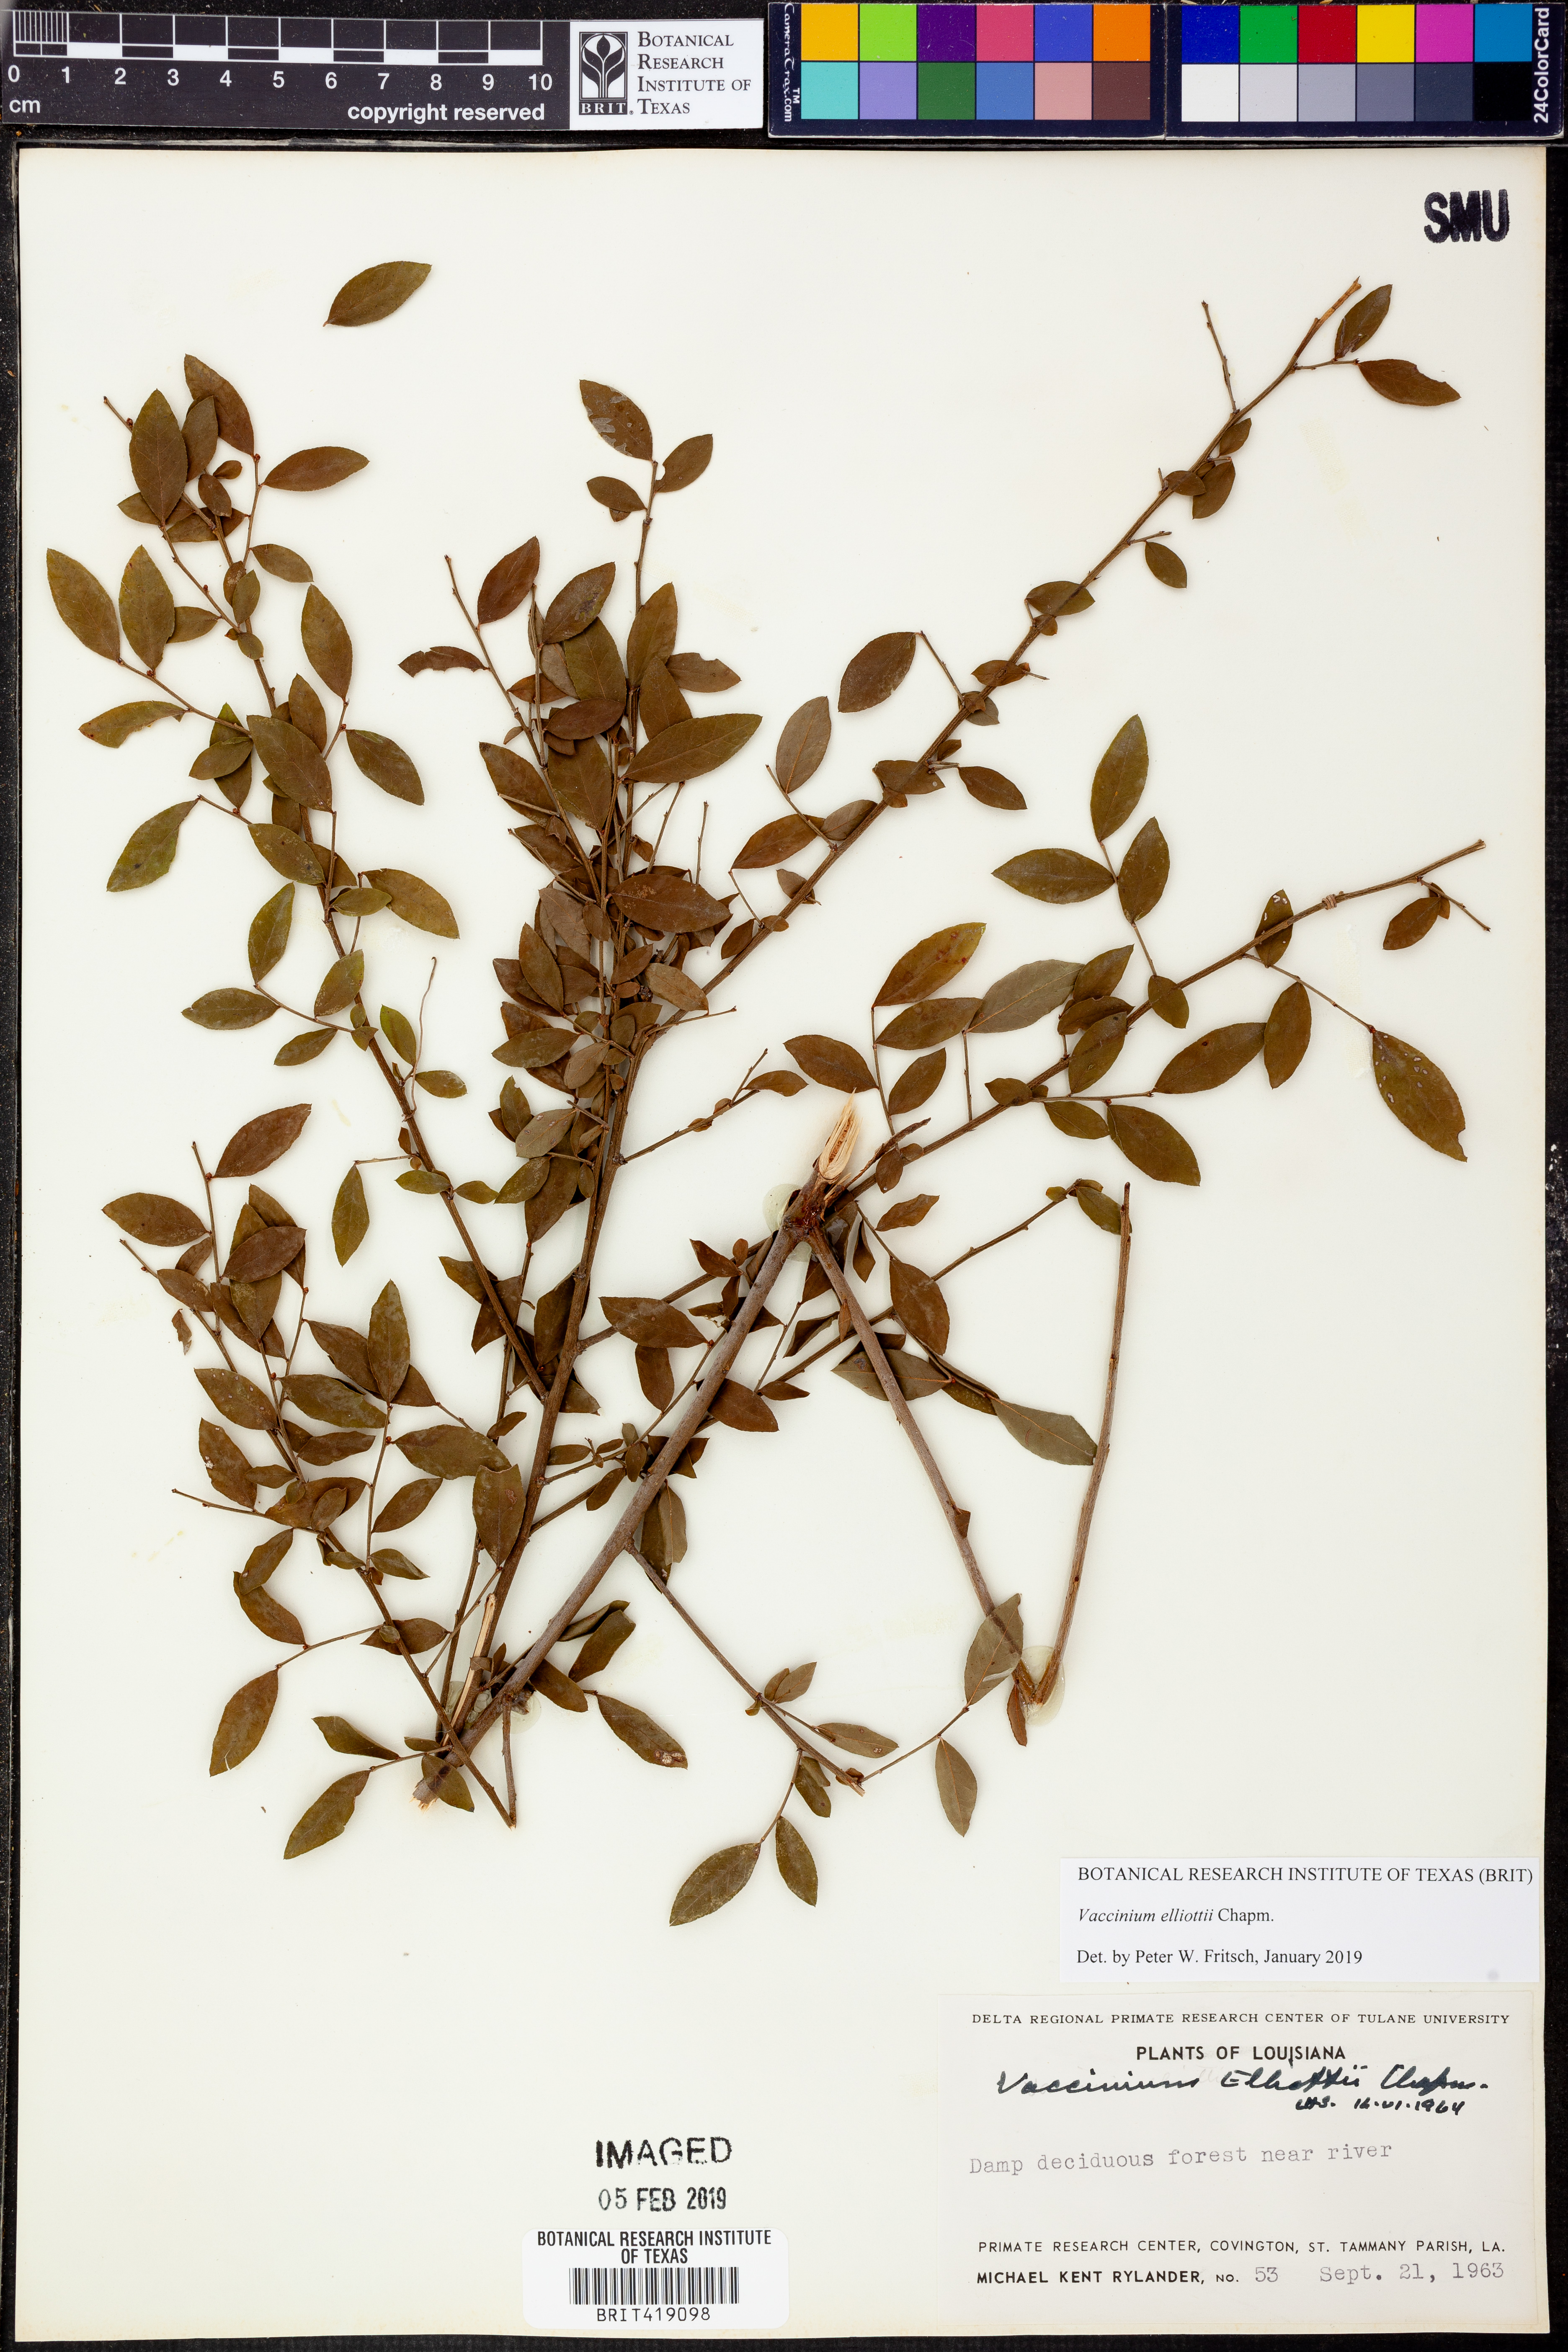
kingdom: Plantae
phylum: Tracheophyta
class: Magnoliopsida
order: Ericales
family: Ericaceae
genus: Vaccinium
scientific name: Vaccinium corymbosum
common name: Blueberry
